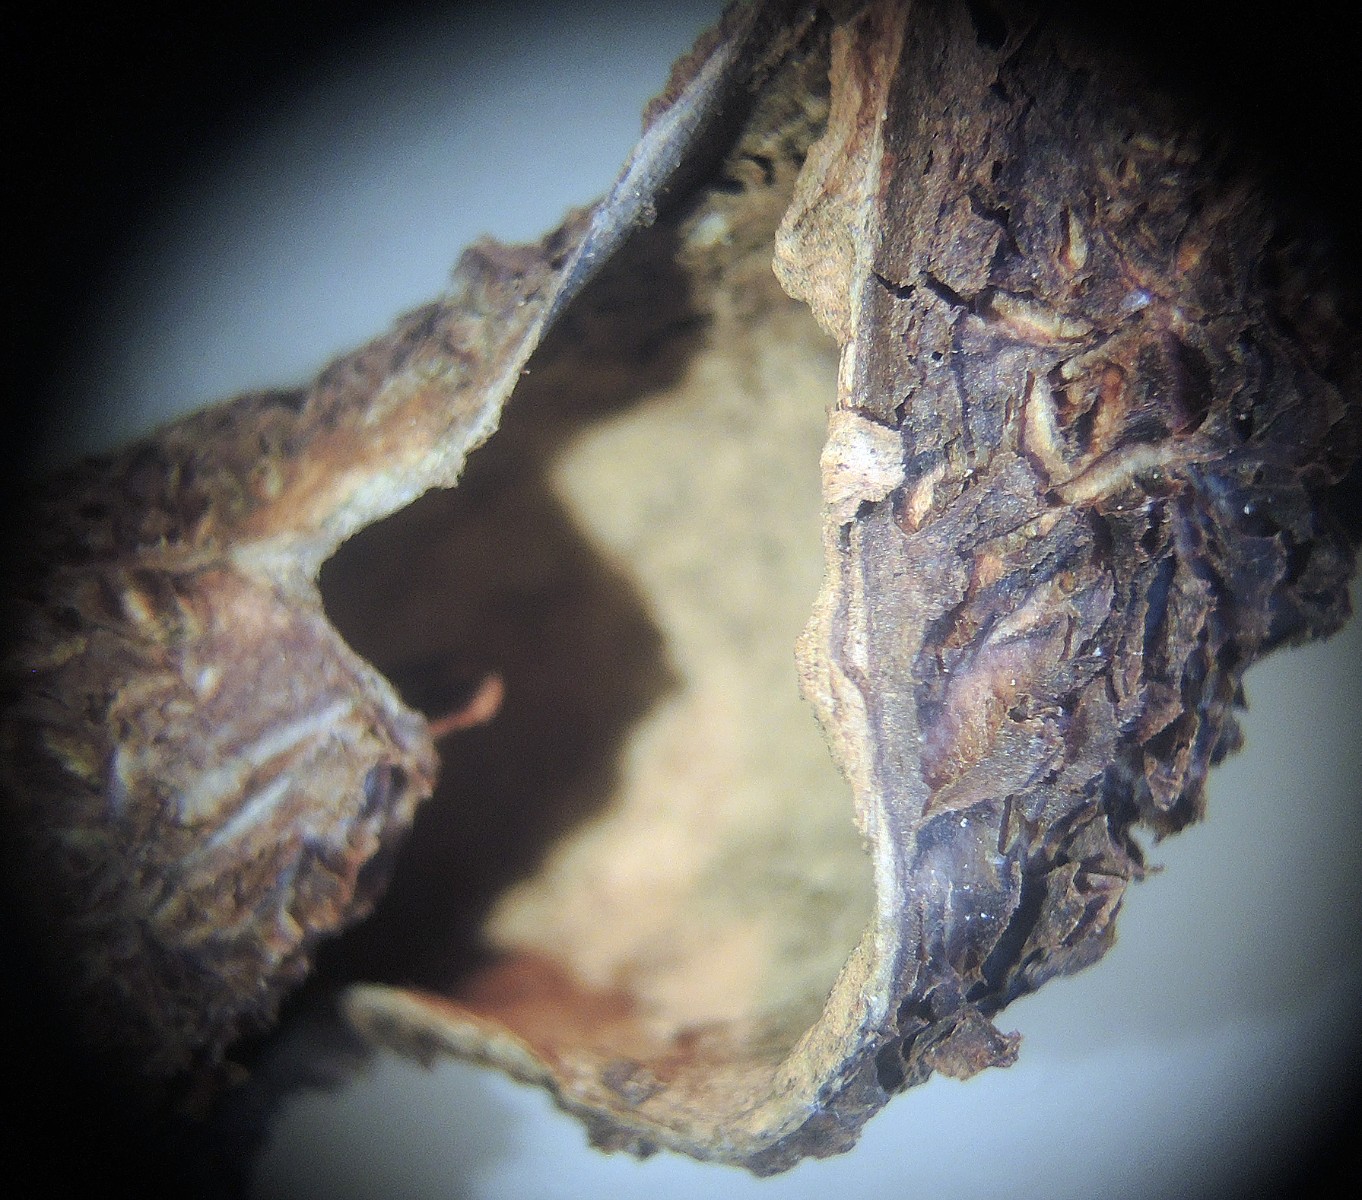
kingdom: Fungi
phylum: Basidiomycota
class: Agaricomycetes
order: Geastrales
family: Geastraceae
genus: Geastrum
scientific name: Geastrum michelianum
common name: kødet stjernebold
